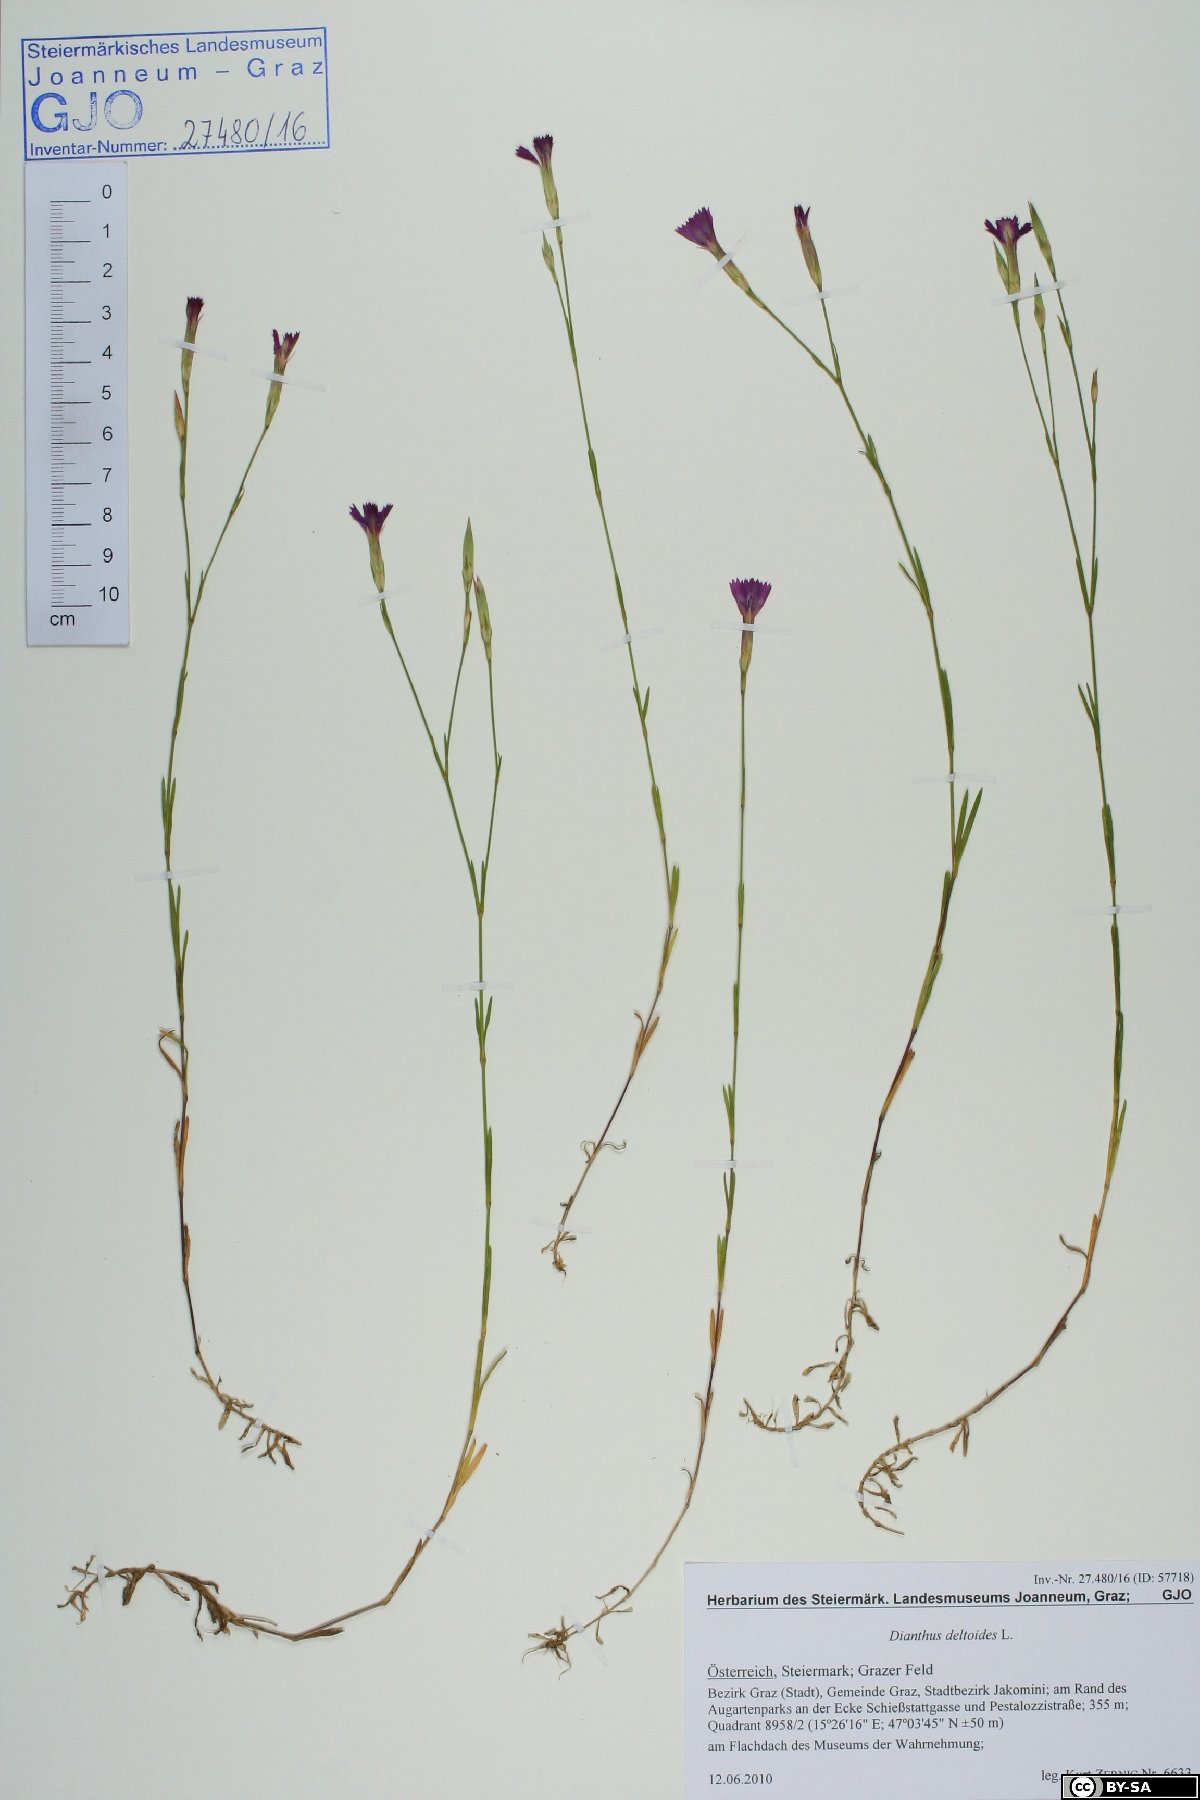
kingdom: Plantae
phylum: Tracheophyta
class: Magnoliopsida
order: Caryophyllales
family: Caryophyllaceae
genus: Dianthus
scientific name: Dianthus deltoides
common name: Maiden pink
